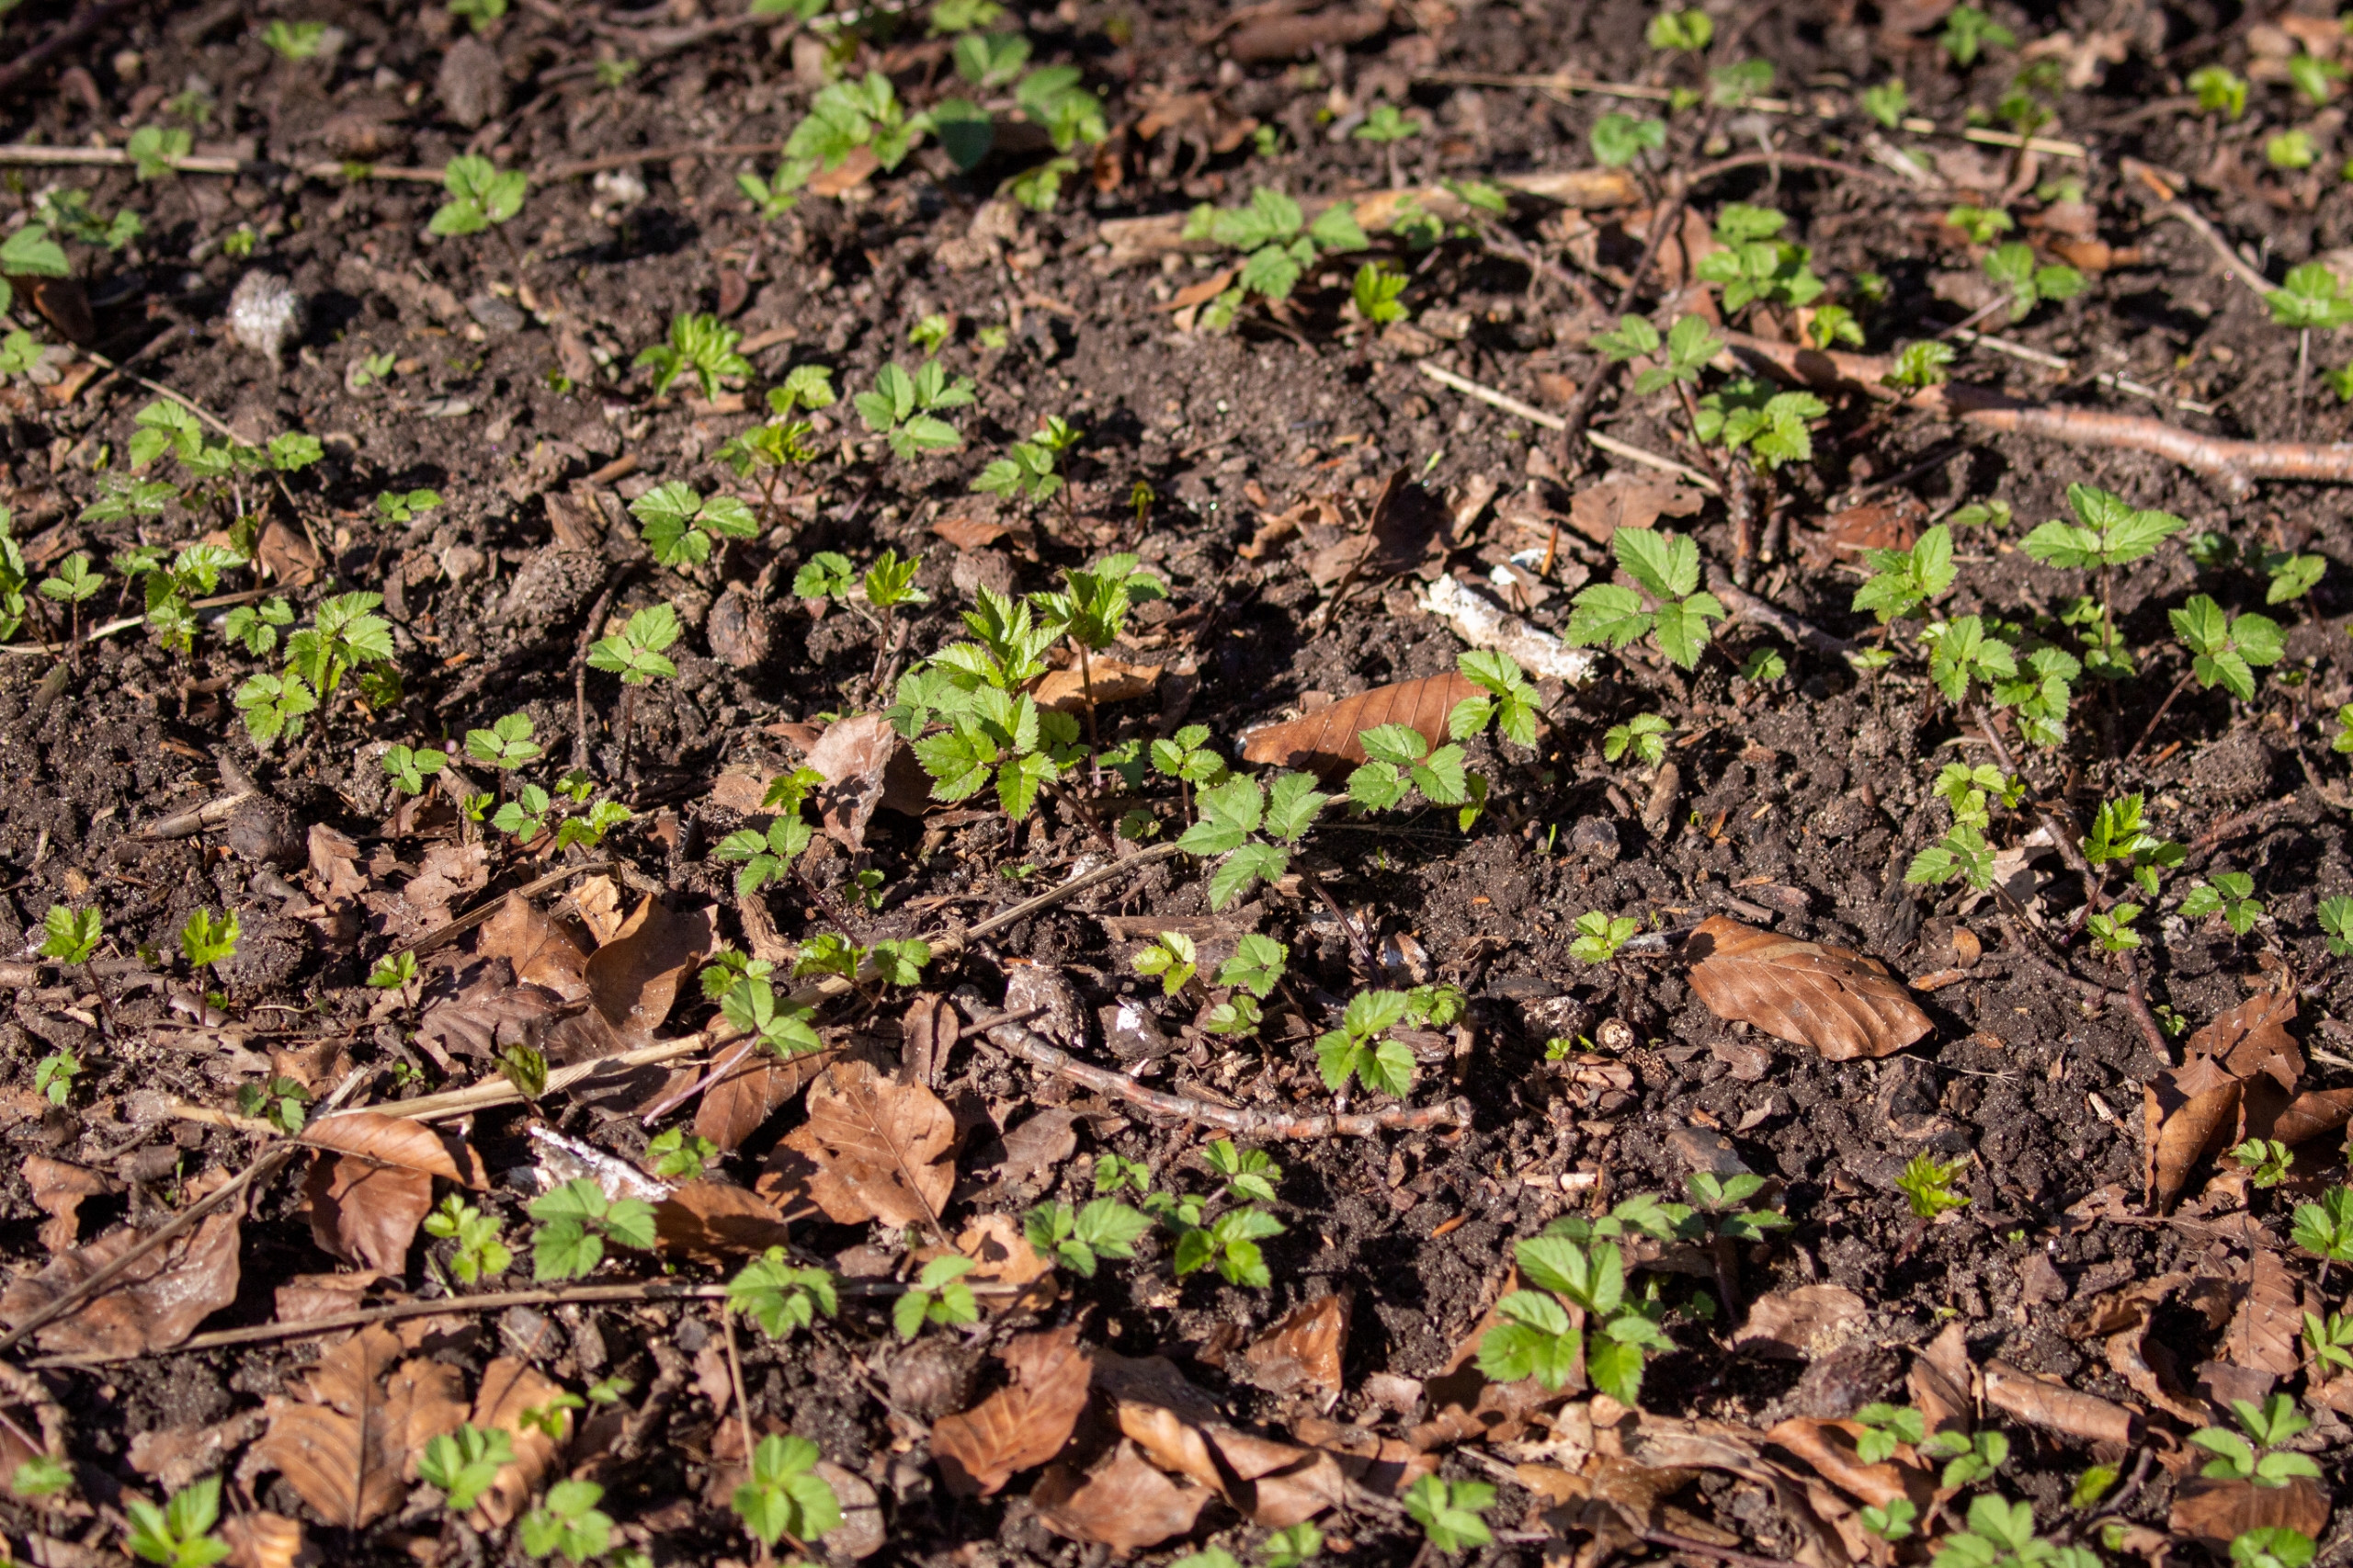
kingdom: Plantae
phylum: Tracheophyta
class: Magnoliopsida
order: Apiales
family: Apiaceae
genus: Aegopodium
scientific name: Aegopodium podagraria
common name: Skvalderkål
